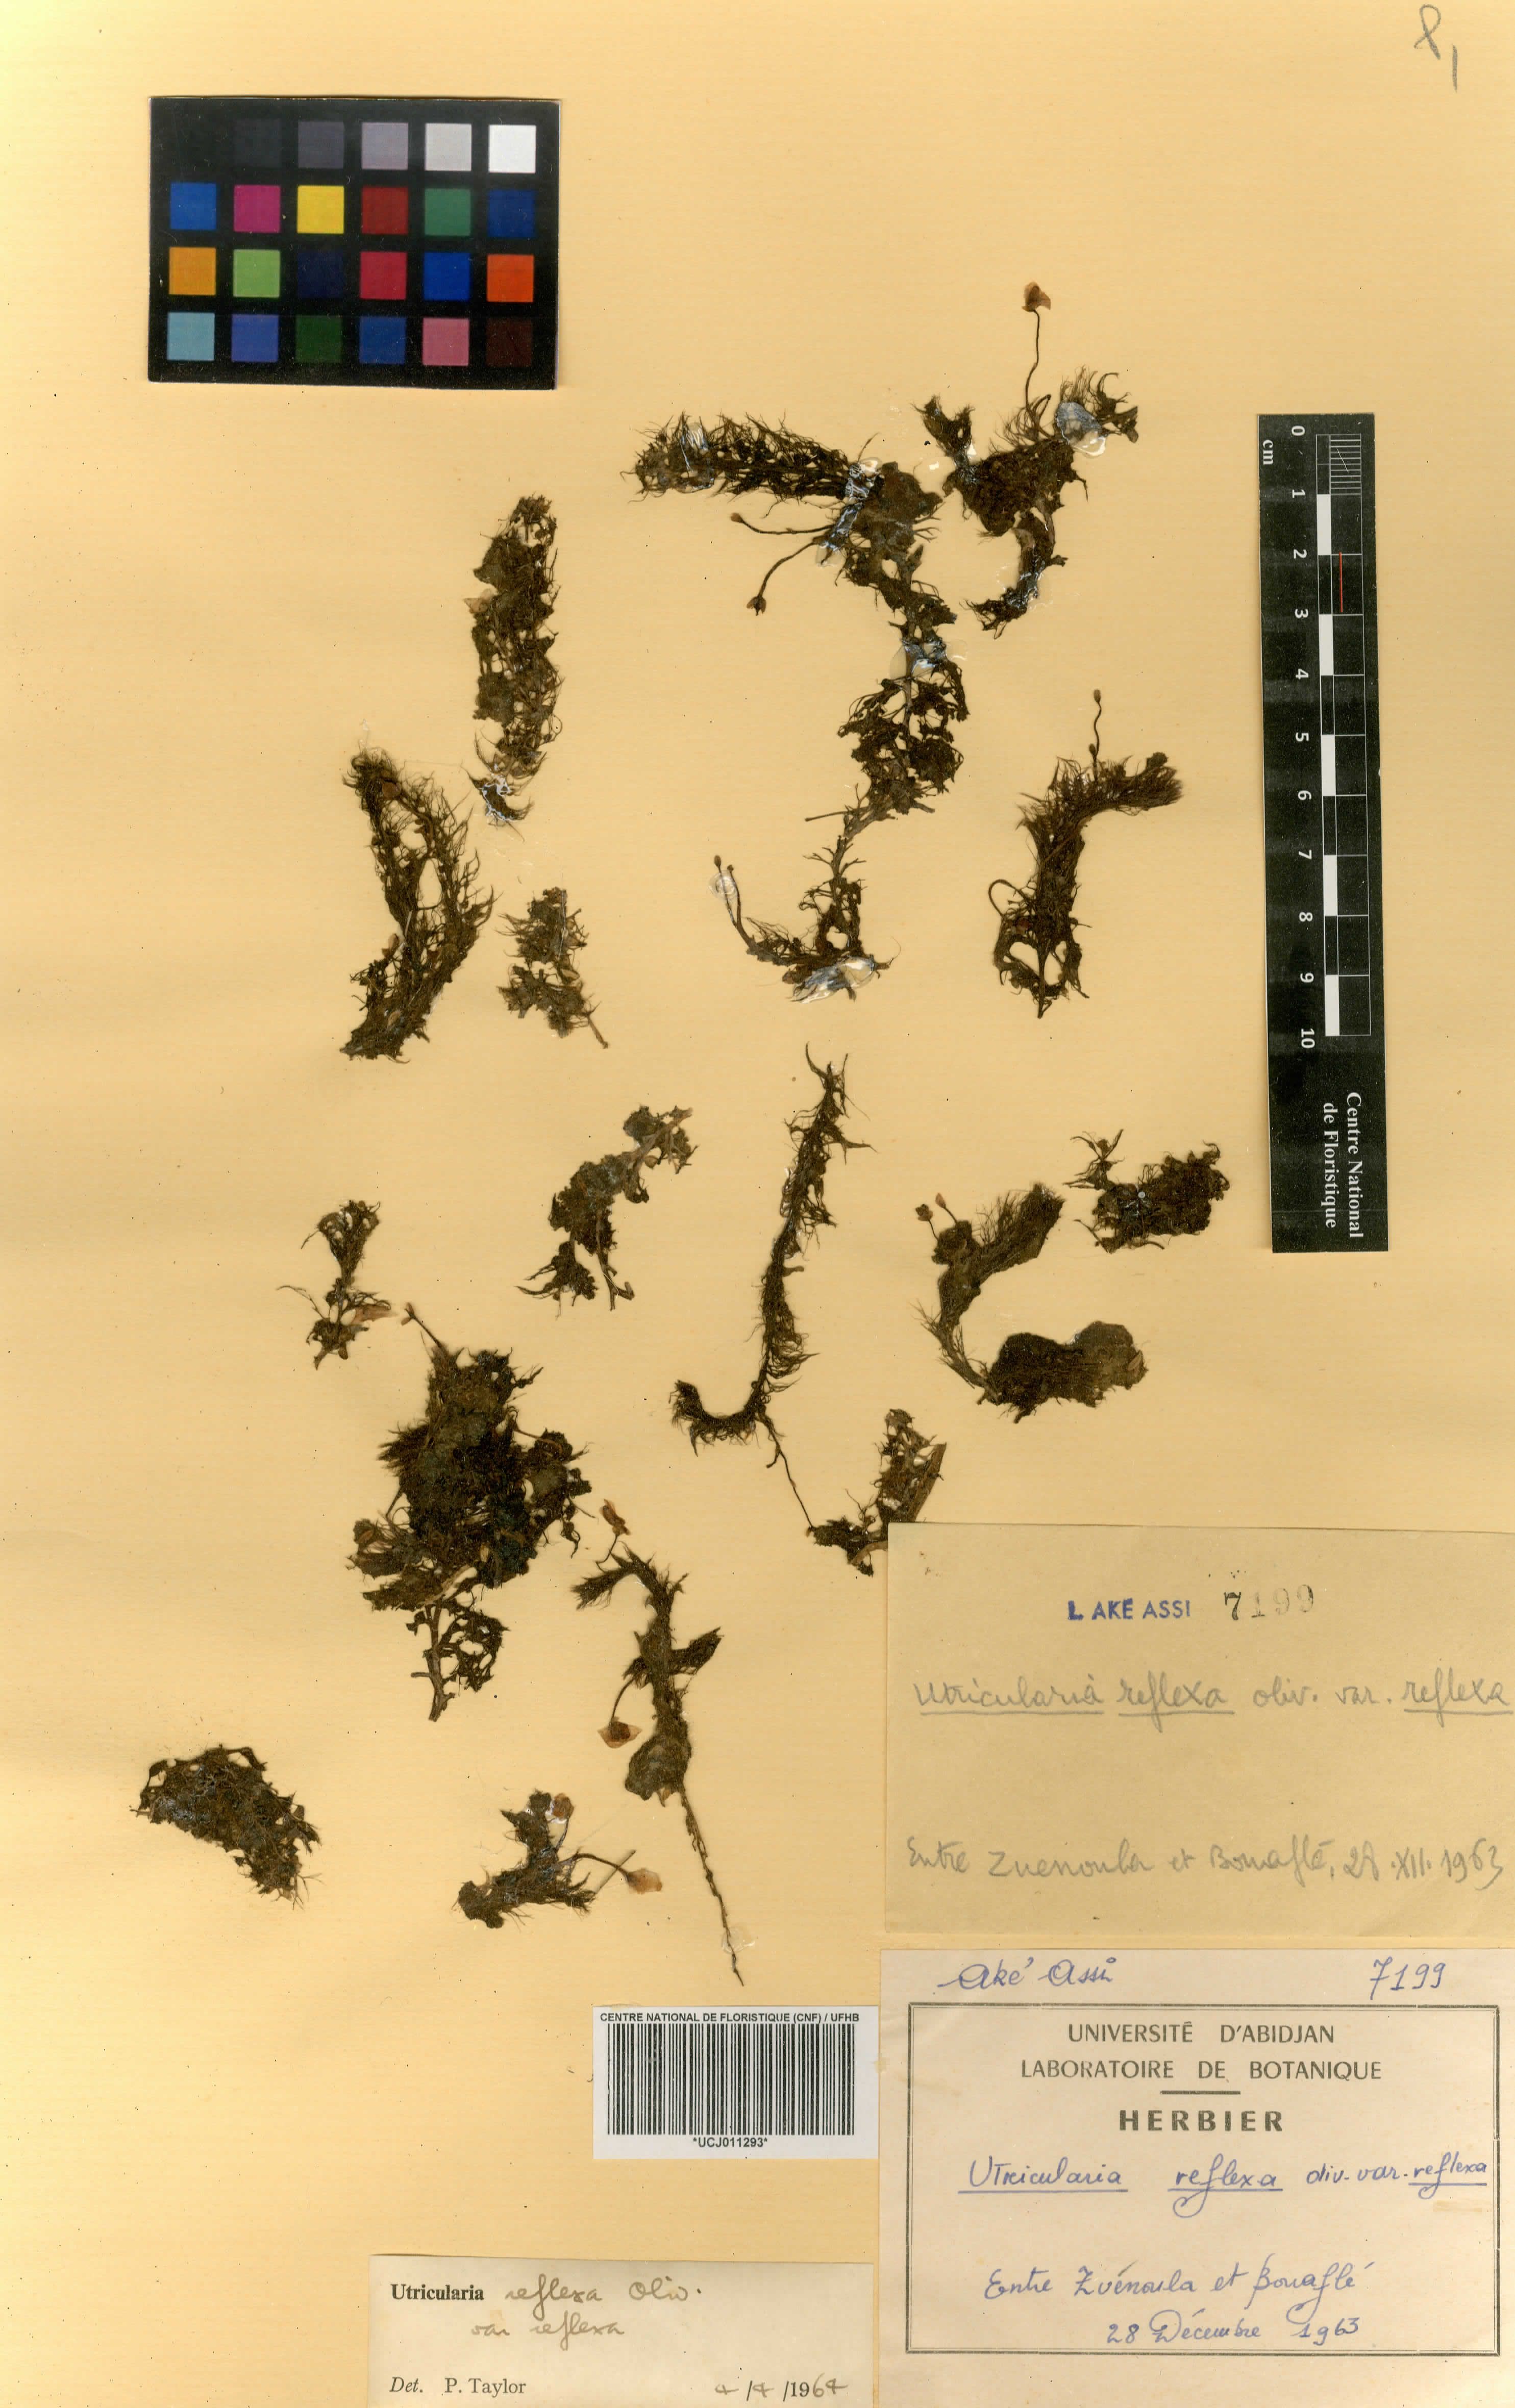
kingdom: Plantae
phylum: Tracheophyta
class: Magnoliopsida
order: Lamiales
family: Lentibulariaceae
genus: Utricularia
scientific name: Utricularia reflexa
